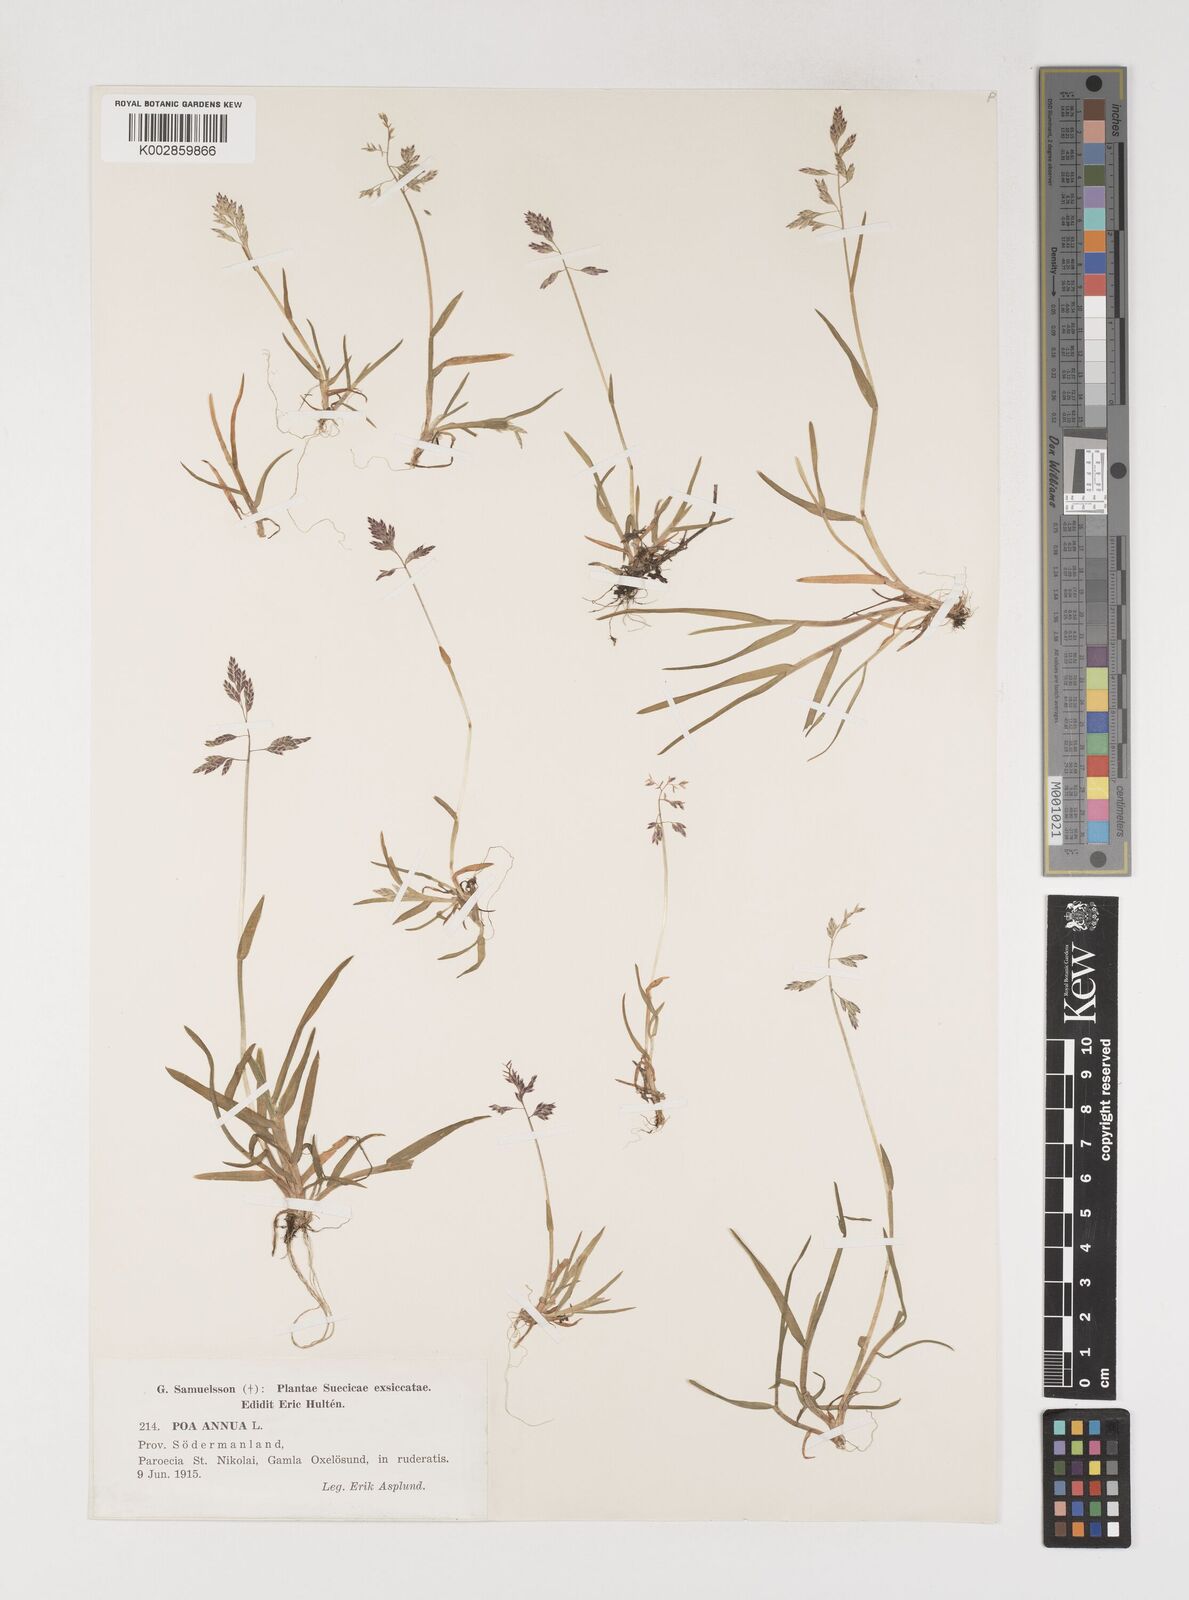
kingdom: Plantae
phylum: Tracheophyta
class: Liliopsida
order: Poales
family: Poaceae
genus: Poa
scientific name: Poa annua
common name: Annual bluegrass
